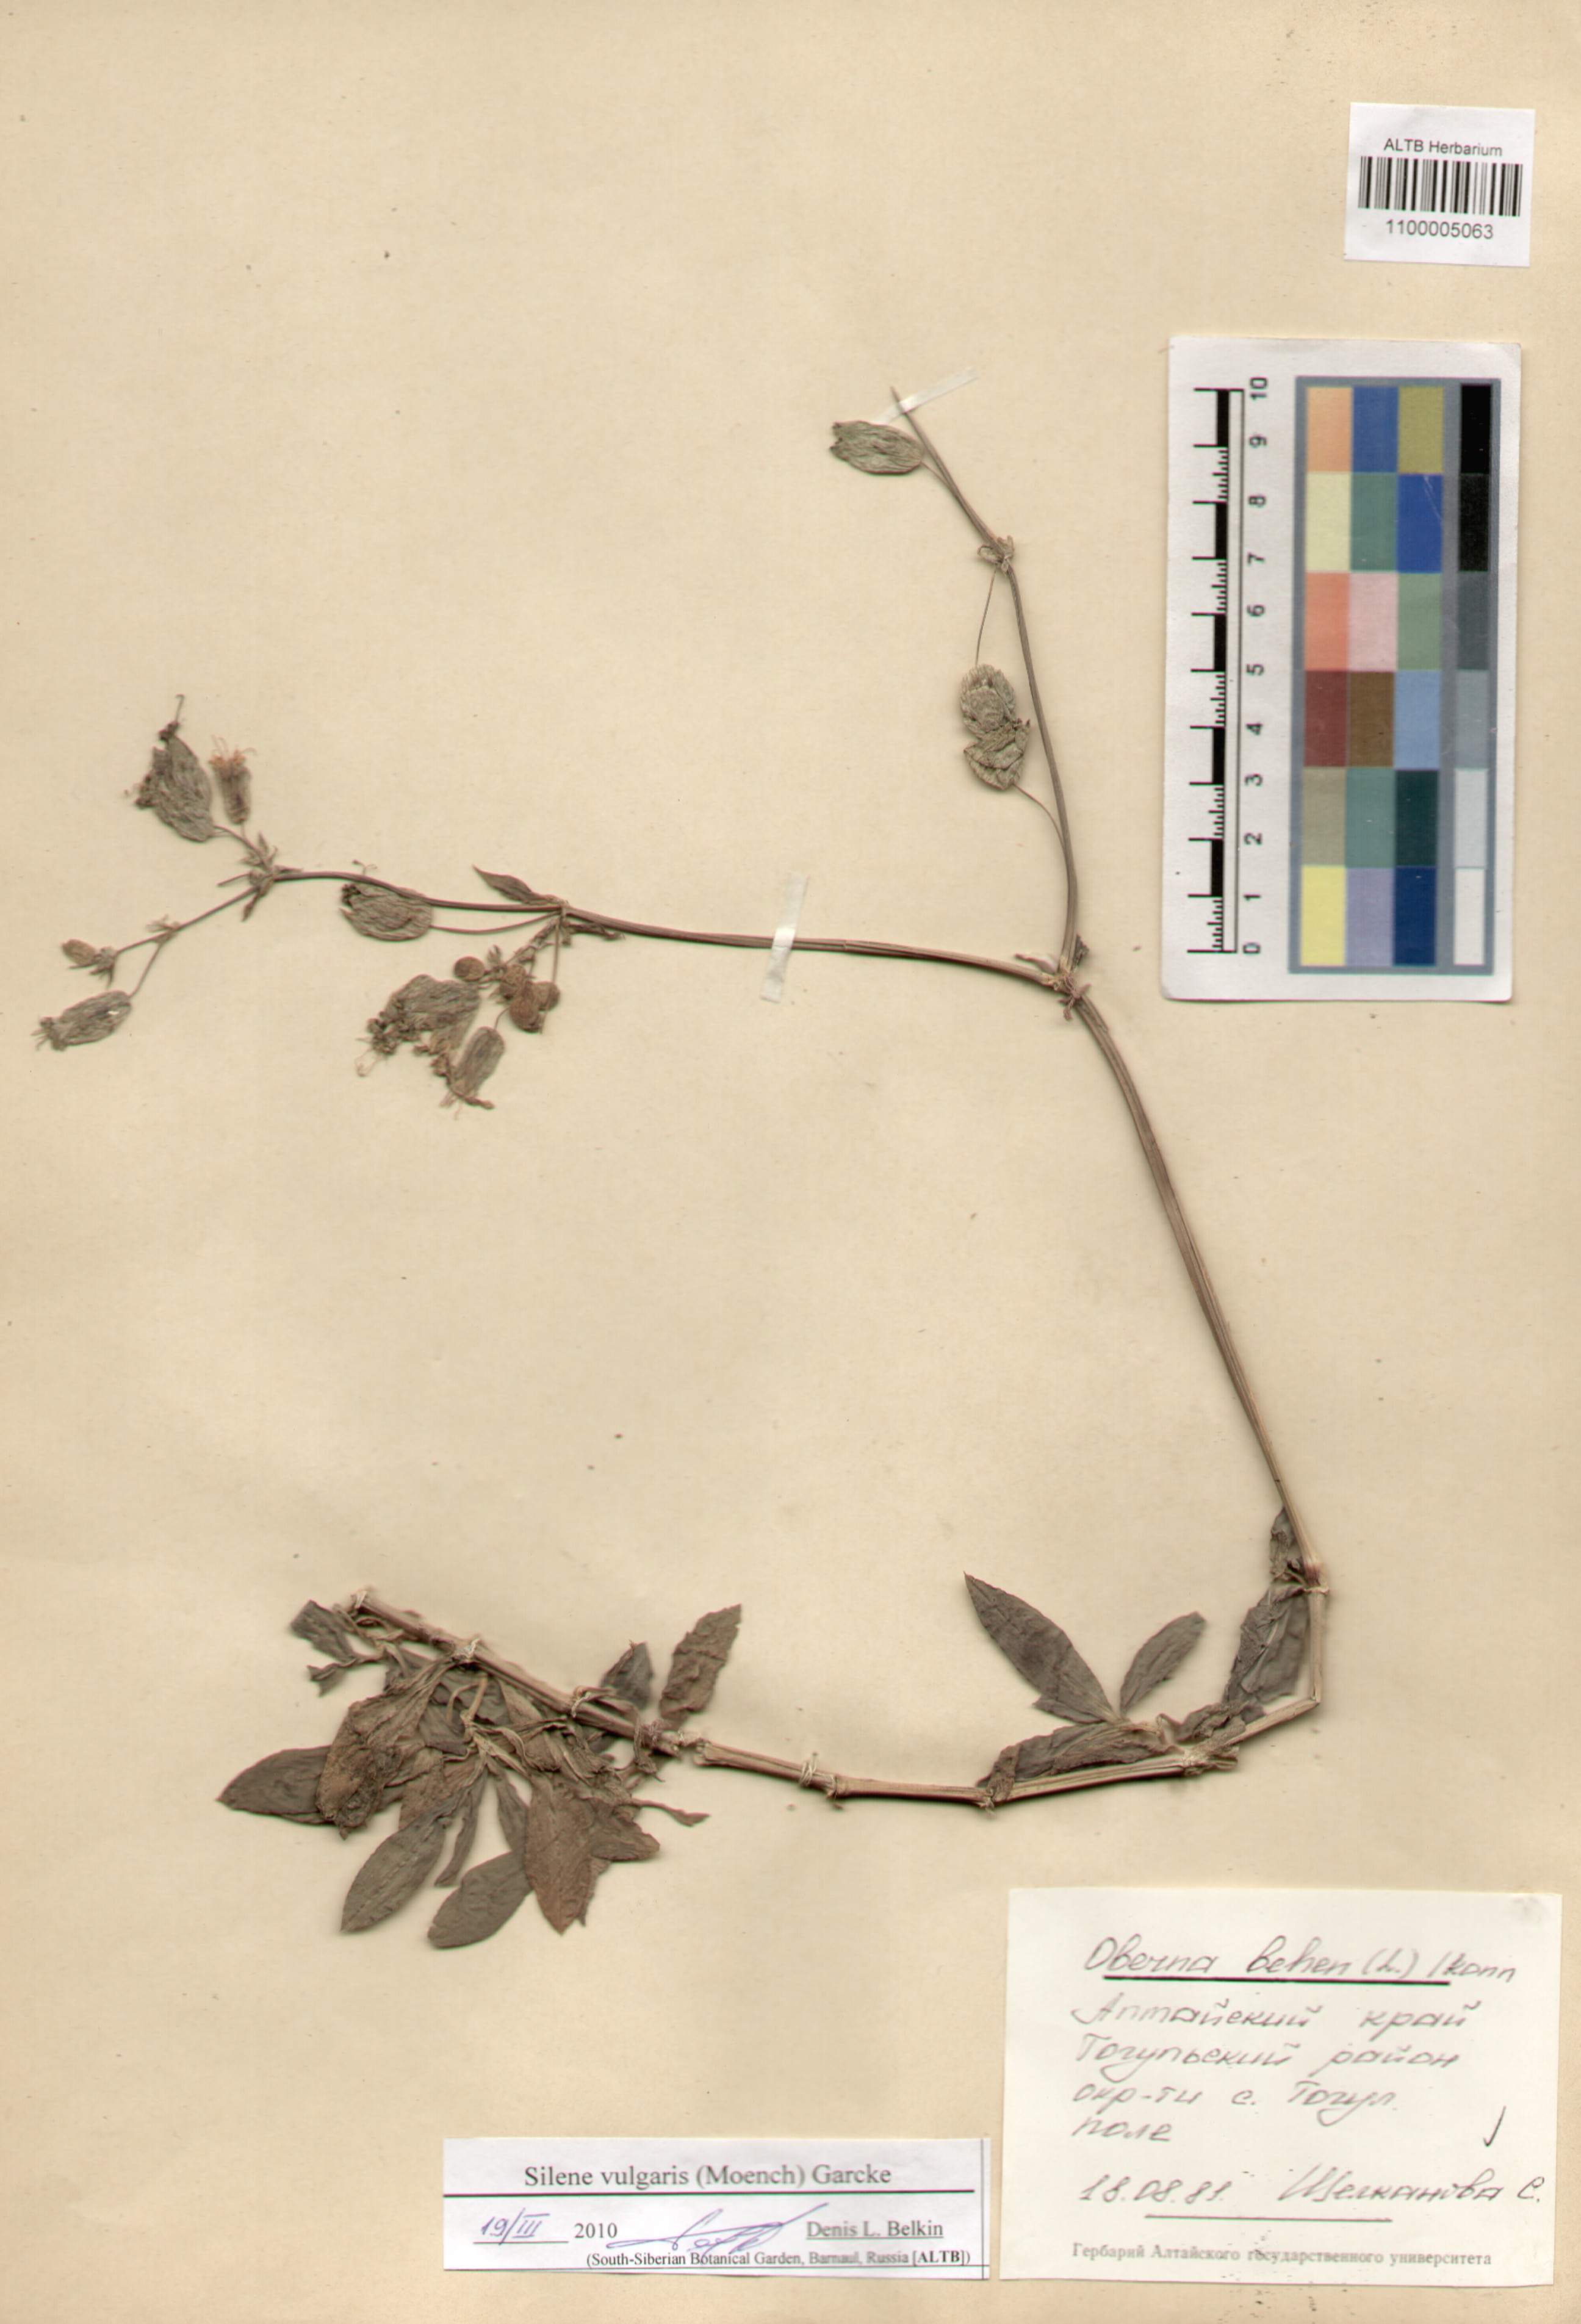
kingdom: Plantae
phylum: Tracheophyta
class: Magnoliopsida
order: Caryophyllales
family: Caryophyllaceae
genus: Silene
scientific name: Silene vulgaris
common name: Bladder campion
